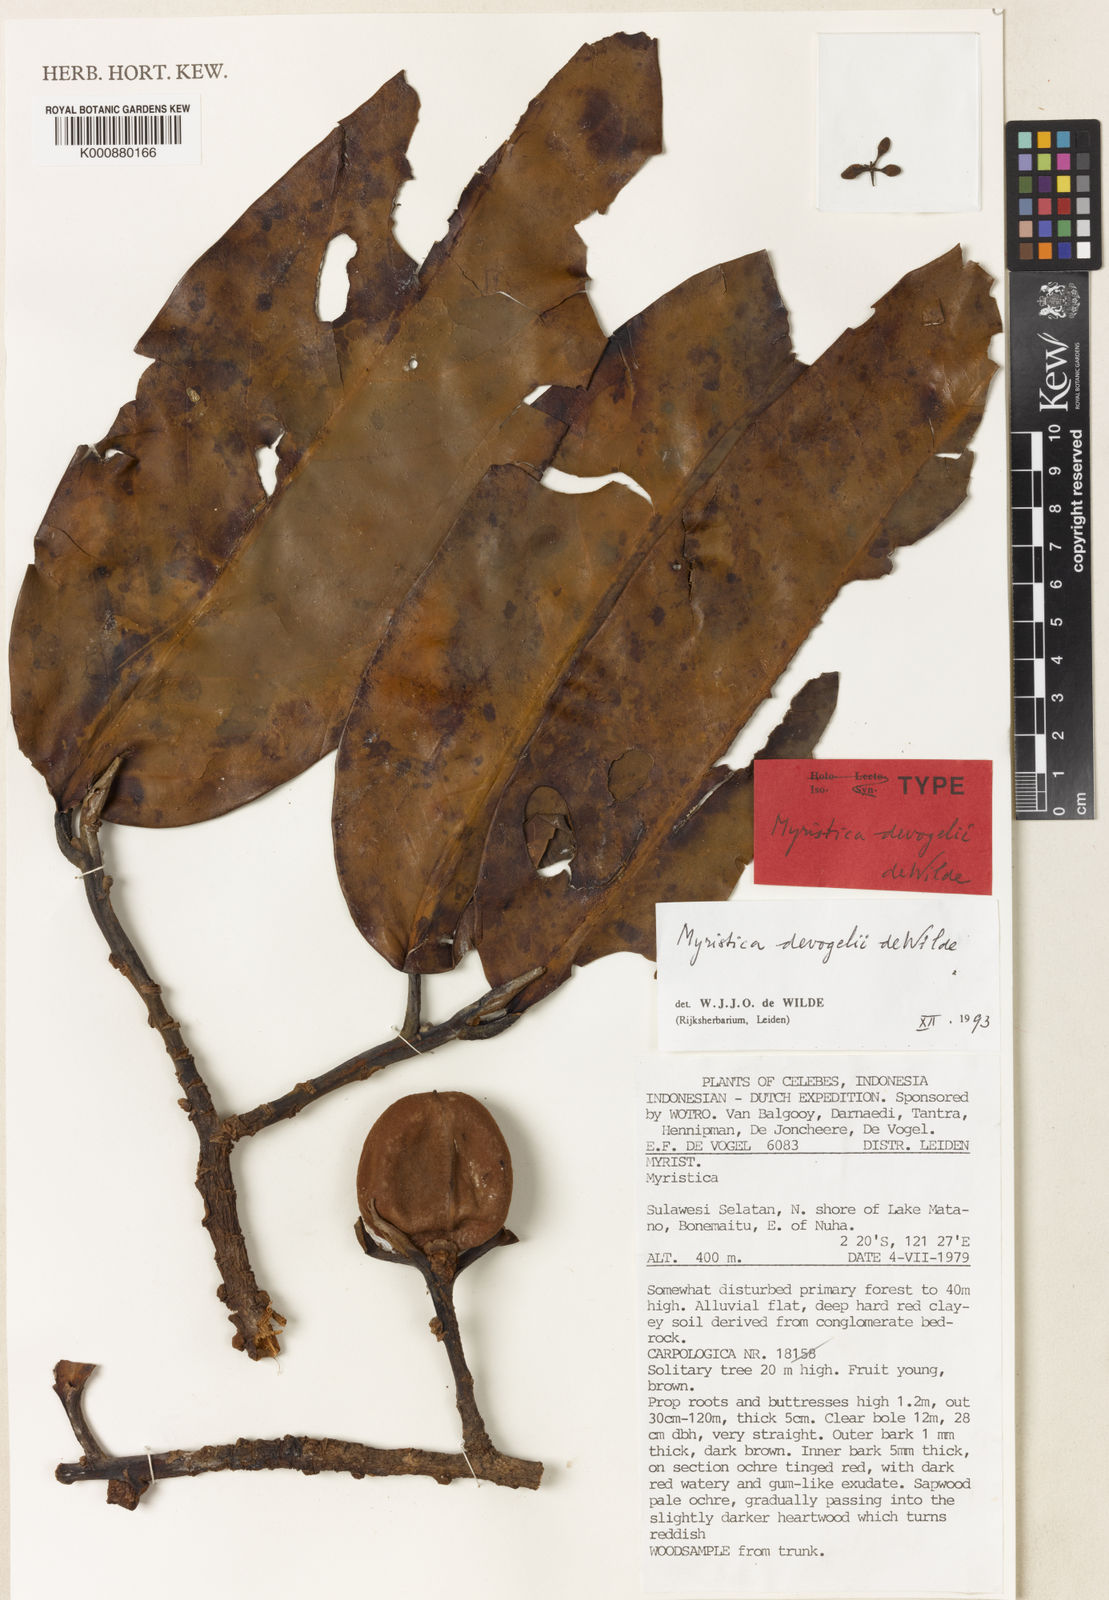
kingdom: Plantae
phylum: Tracheophyta
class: Magnoliopsida
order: Magnoliales
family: Myristicaceae
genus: Myristica
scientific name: Myristica devogelii
